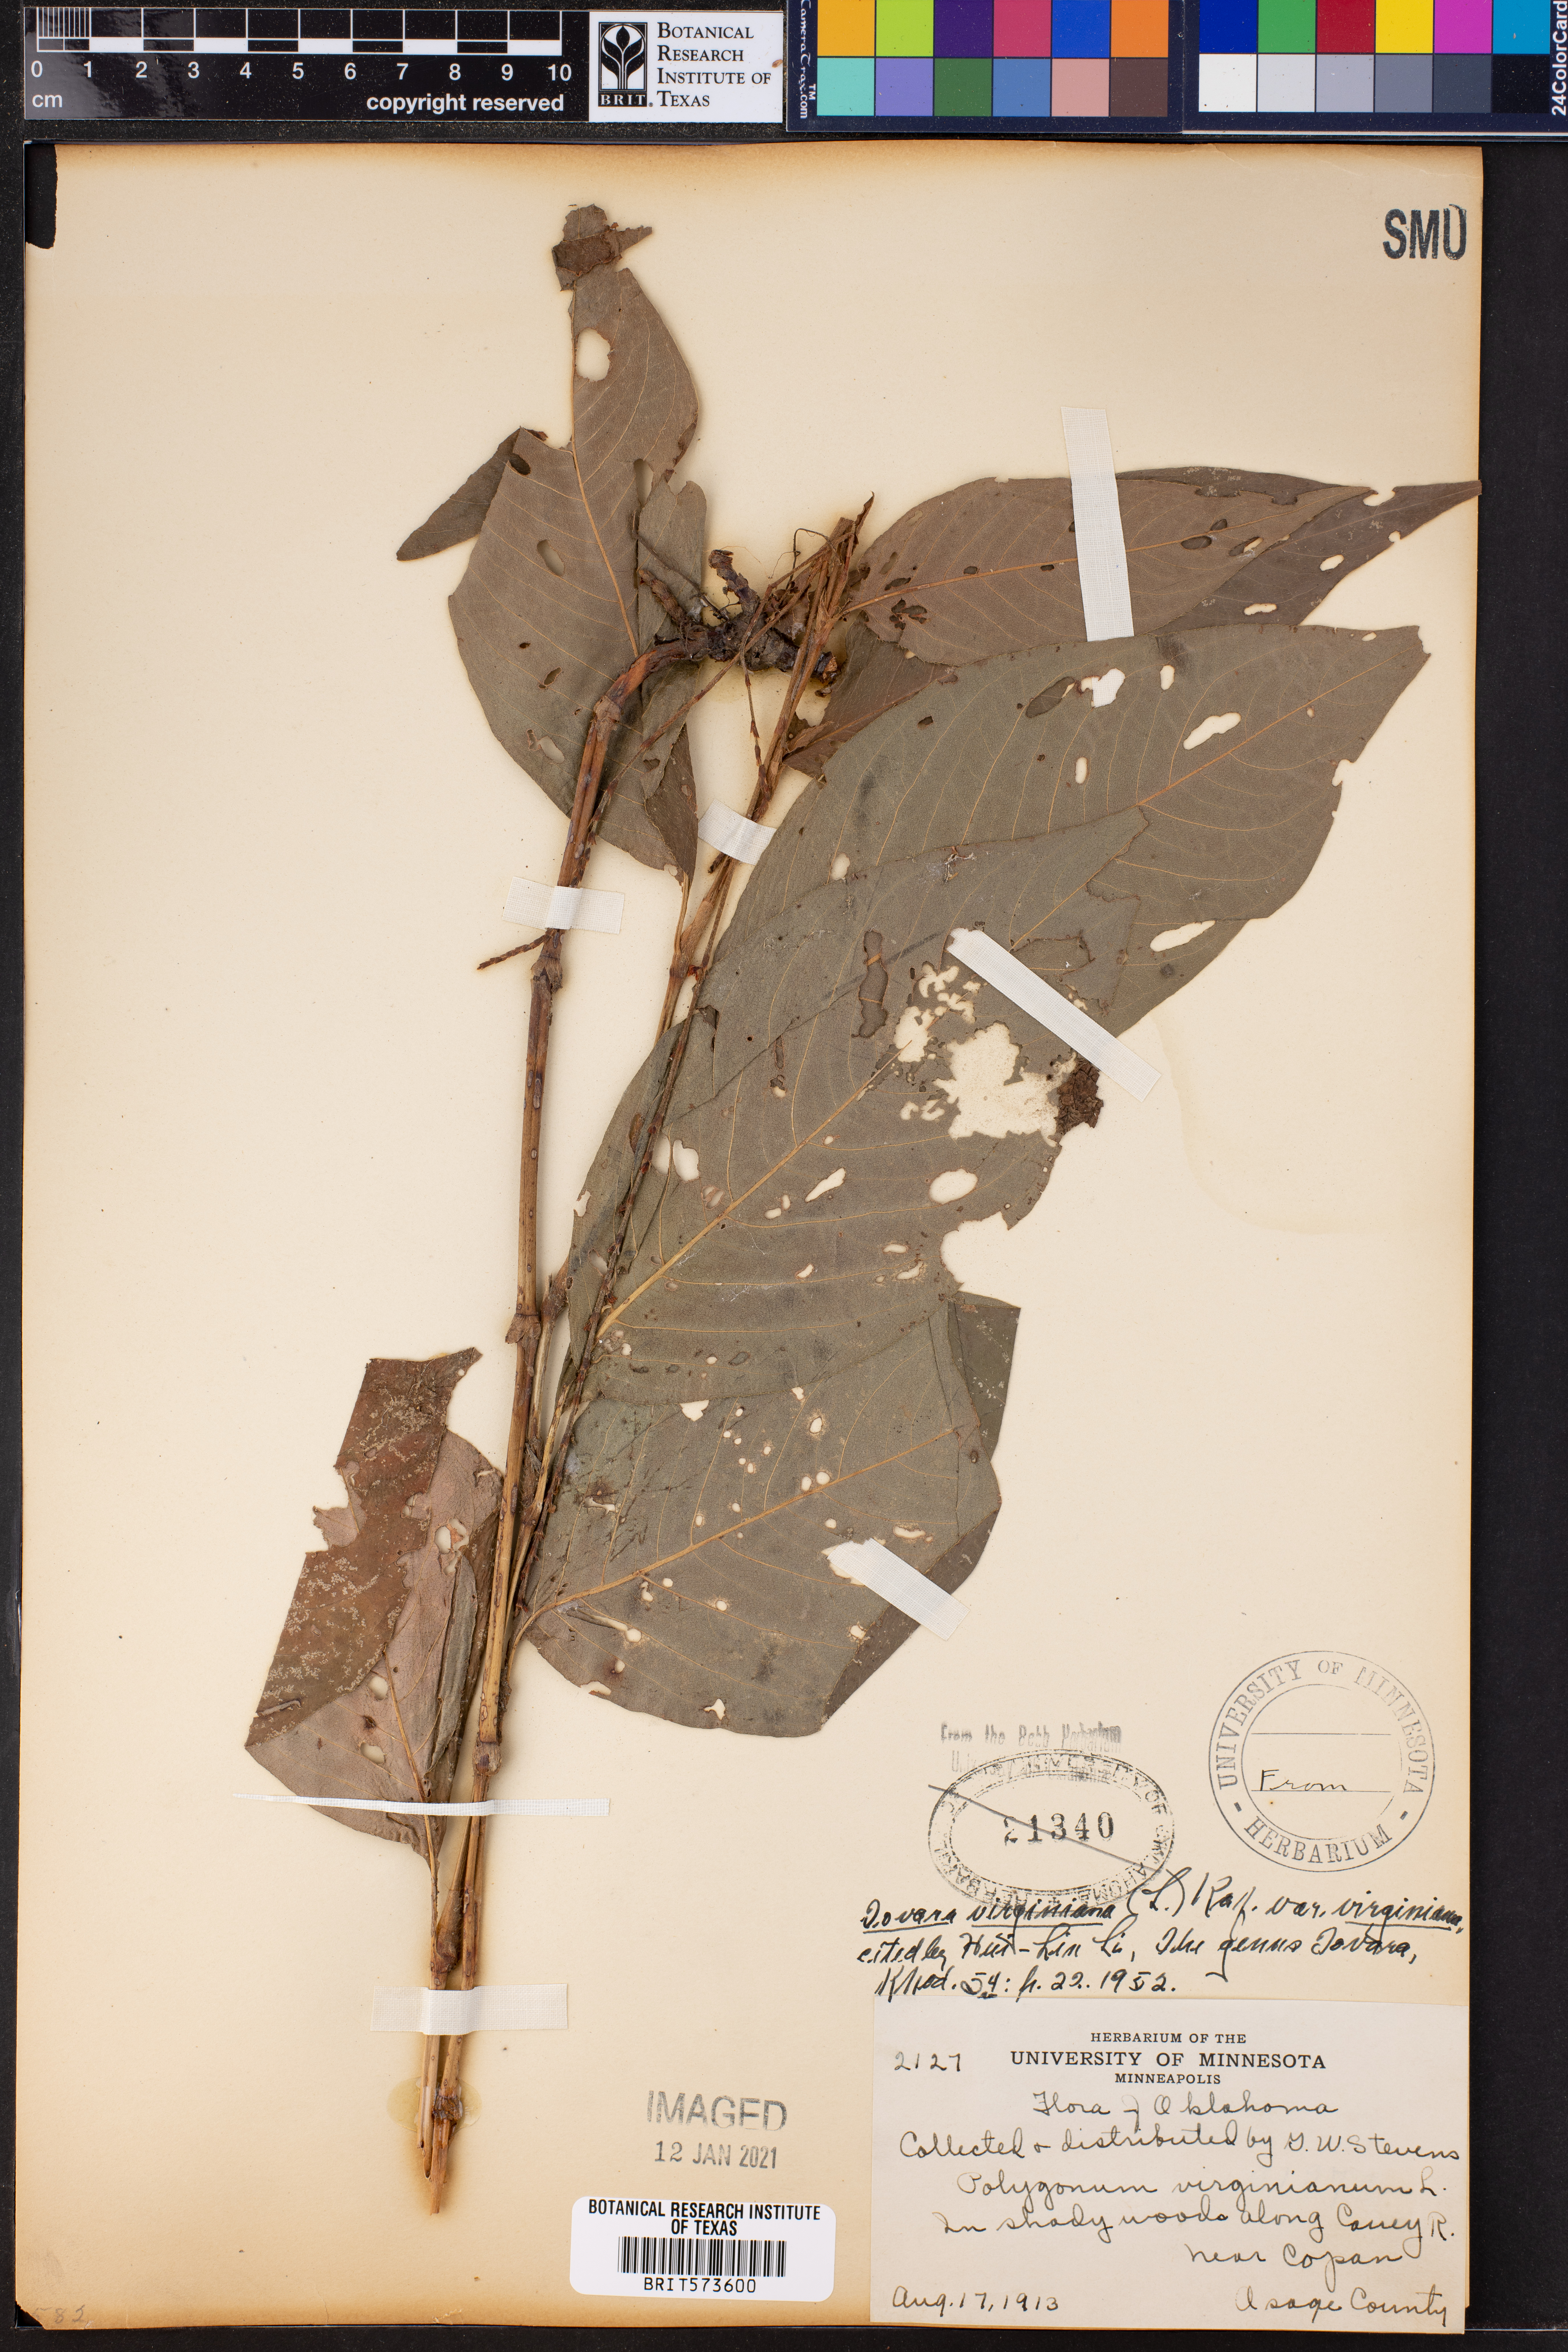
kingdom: Plantae
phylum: Tracheophyta
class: Magnoliopsida
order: Caryophyllales
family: Polygonaceae
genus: Persicaria
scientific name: Persicaria virginiana
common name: Jumpseed
